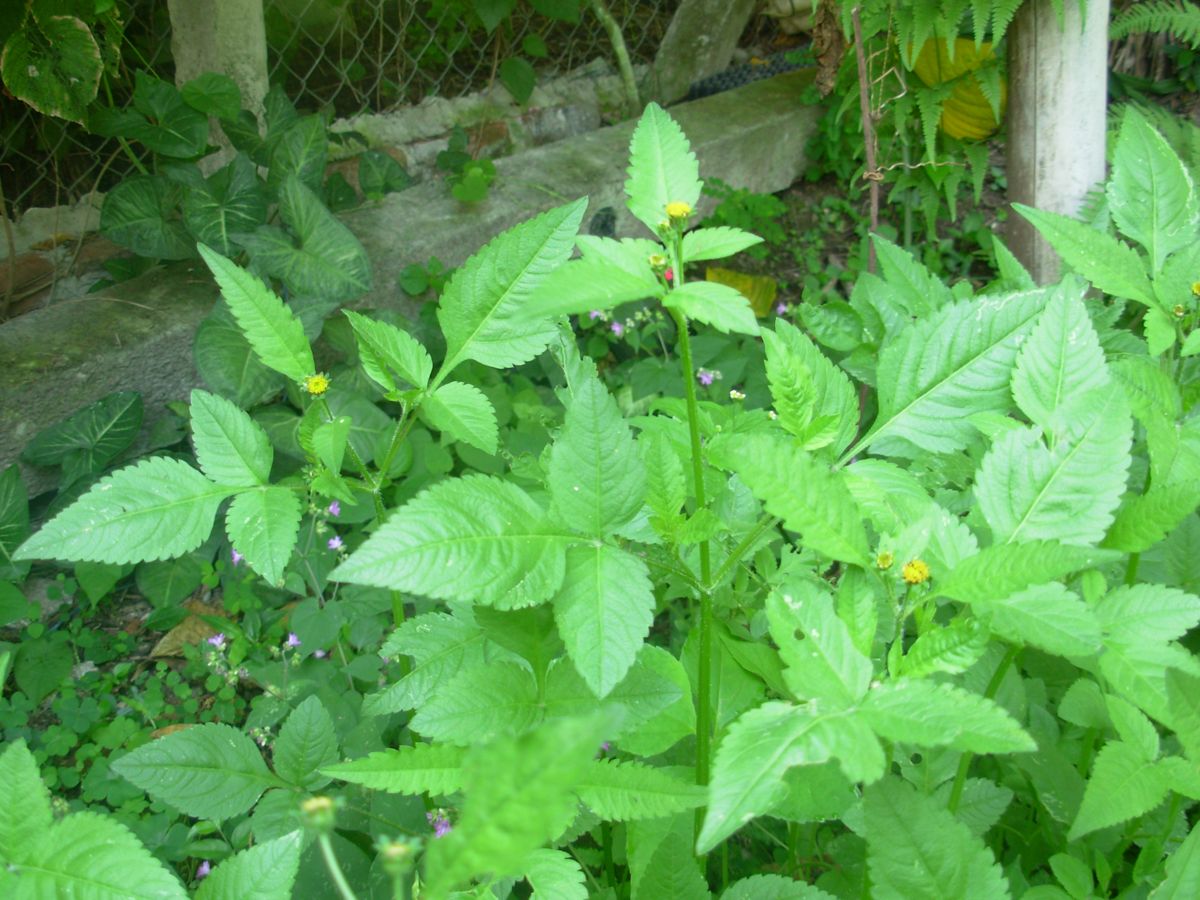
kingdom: Plantae
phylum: Tracheophyta
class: Magnoliopsida
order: Asterales
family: Asteraceae
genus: Bidens
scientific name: Bidens pilosa
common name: Black-jack
